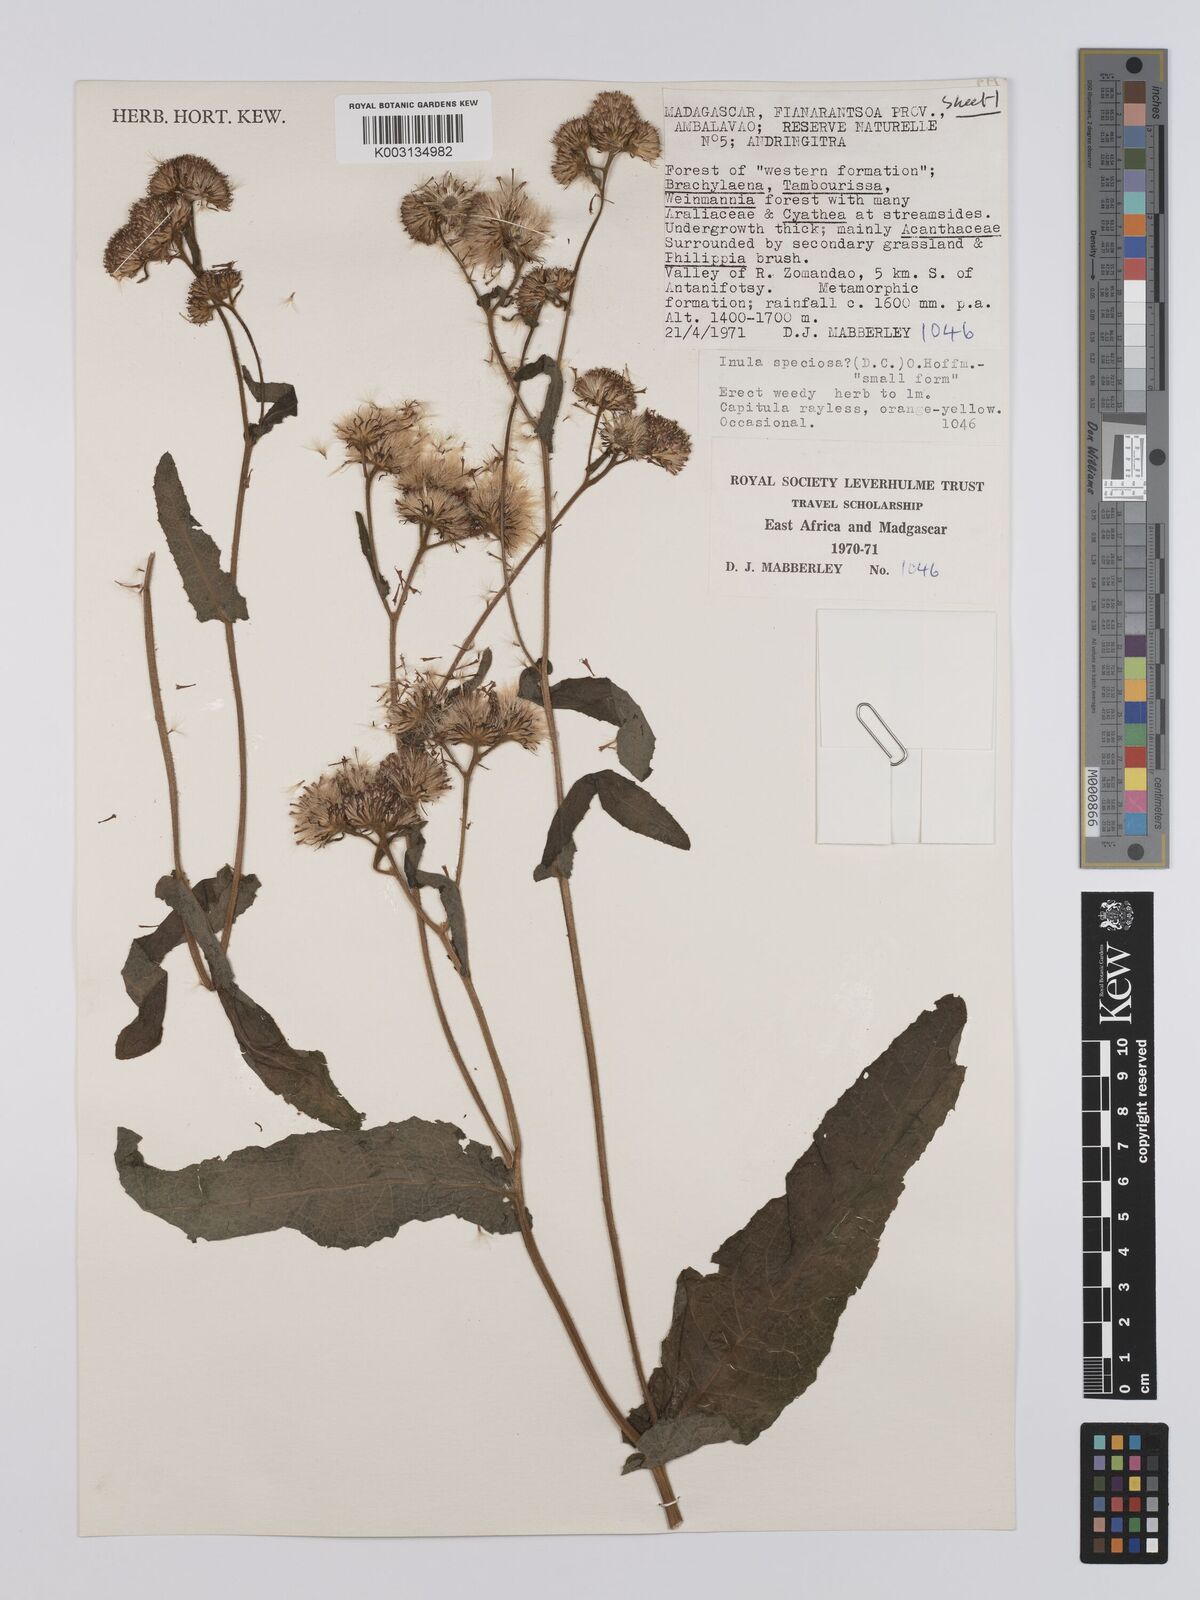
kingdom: Plantae
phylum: Tracheophyta
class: Magnoliopsida
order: Asterales
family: Asteraceae
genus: Inula
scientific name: Inula speciosa
